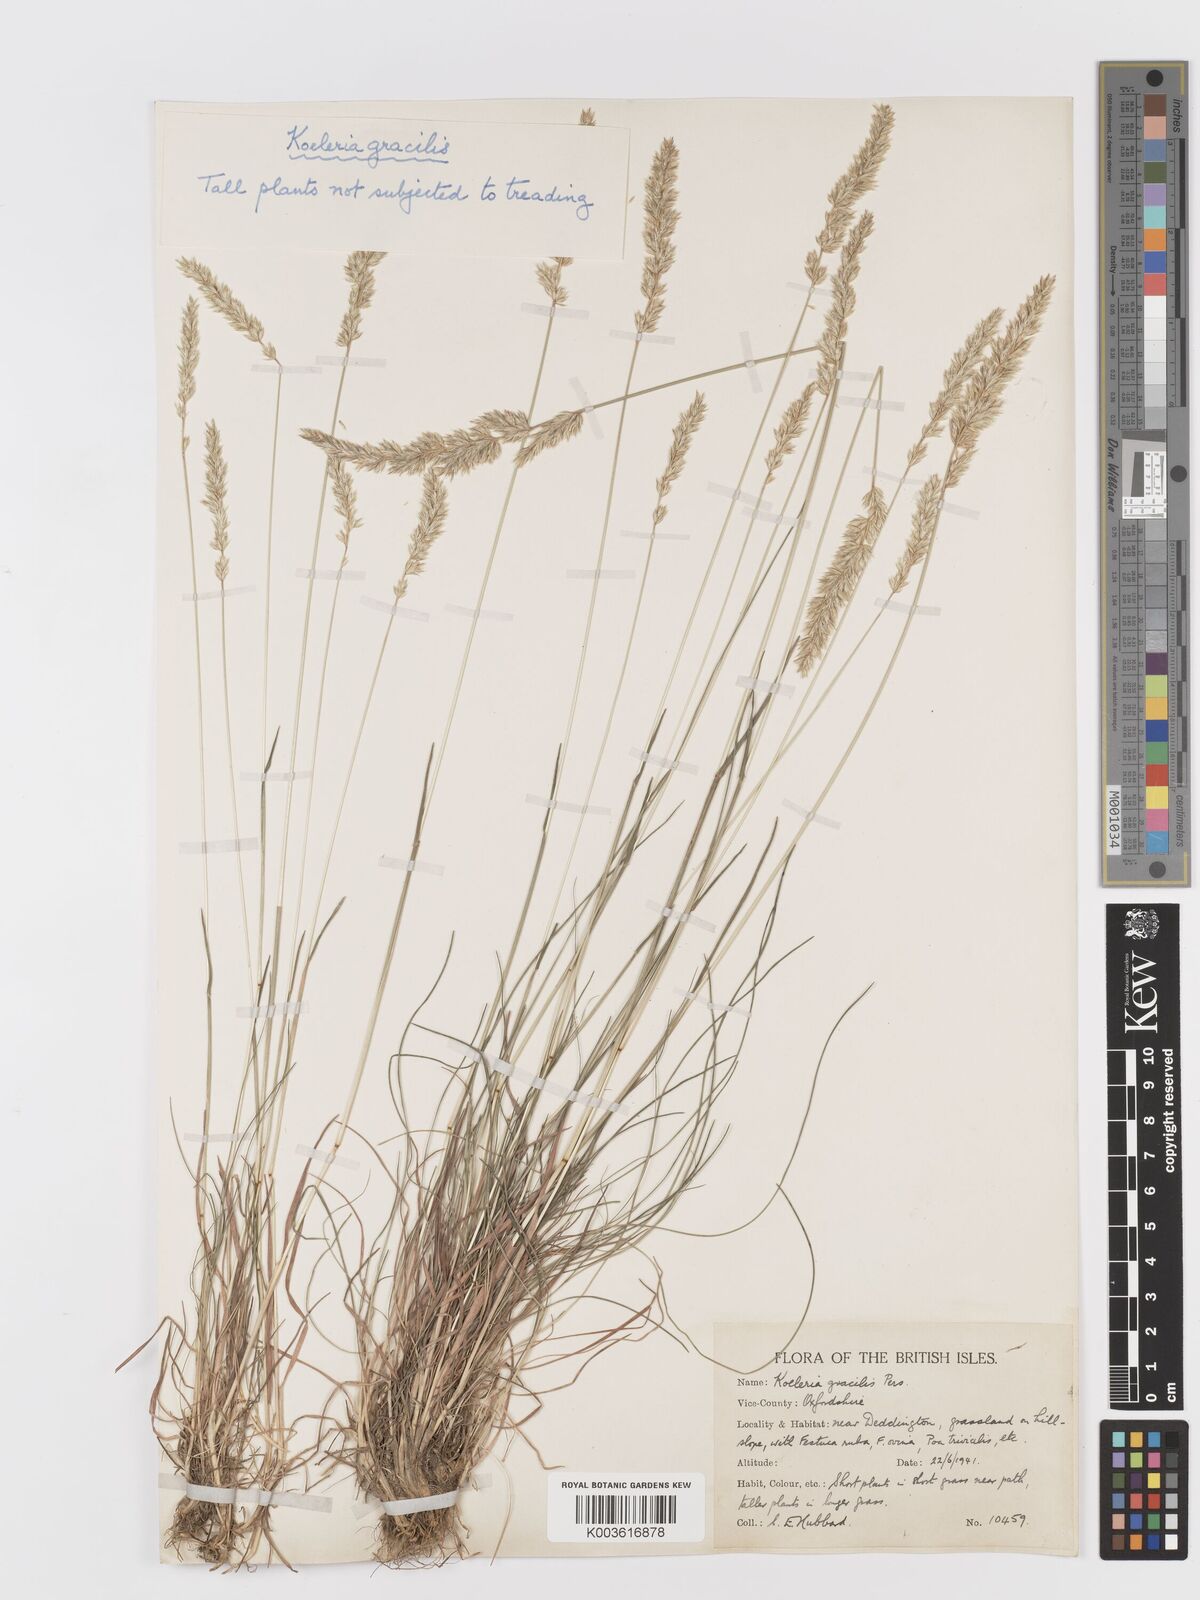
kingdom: Plantae
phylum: Tracheophyta
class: Liliopsida
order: Poales
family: Poaceae
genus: Koeleria
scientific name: Koeleria macrantha
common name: Crested hair-grass
